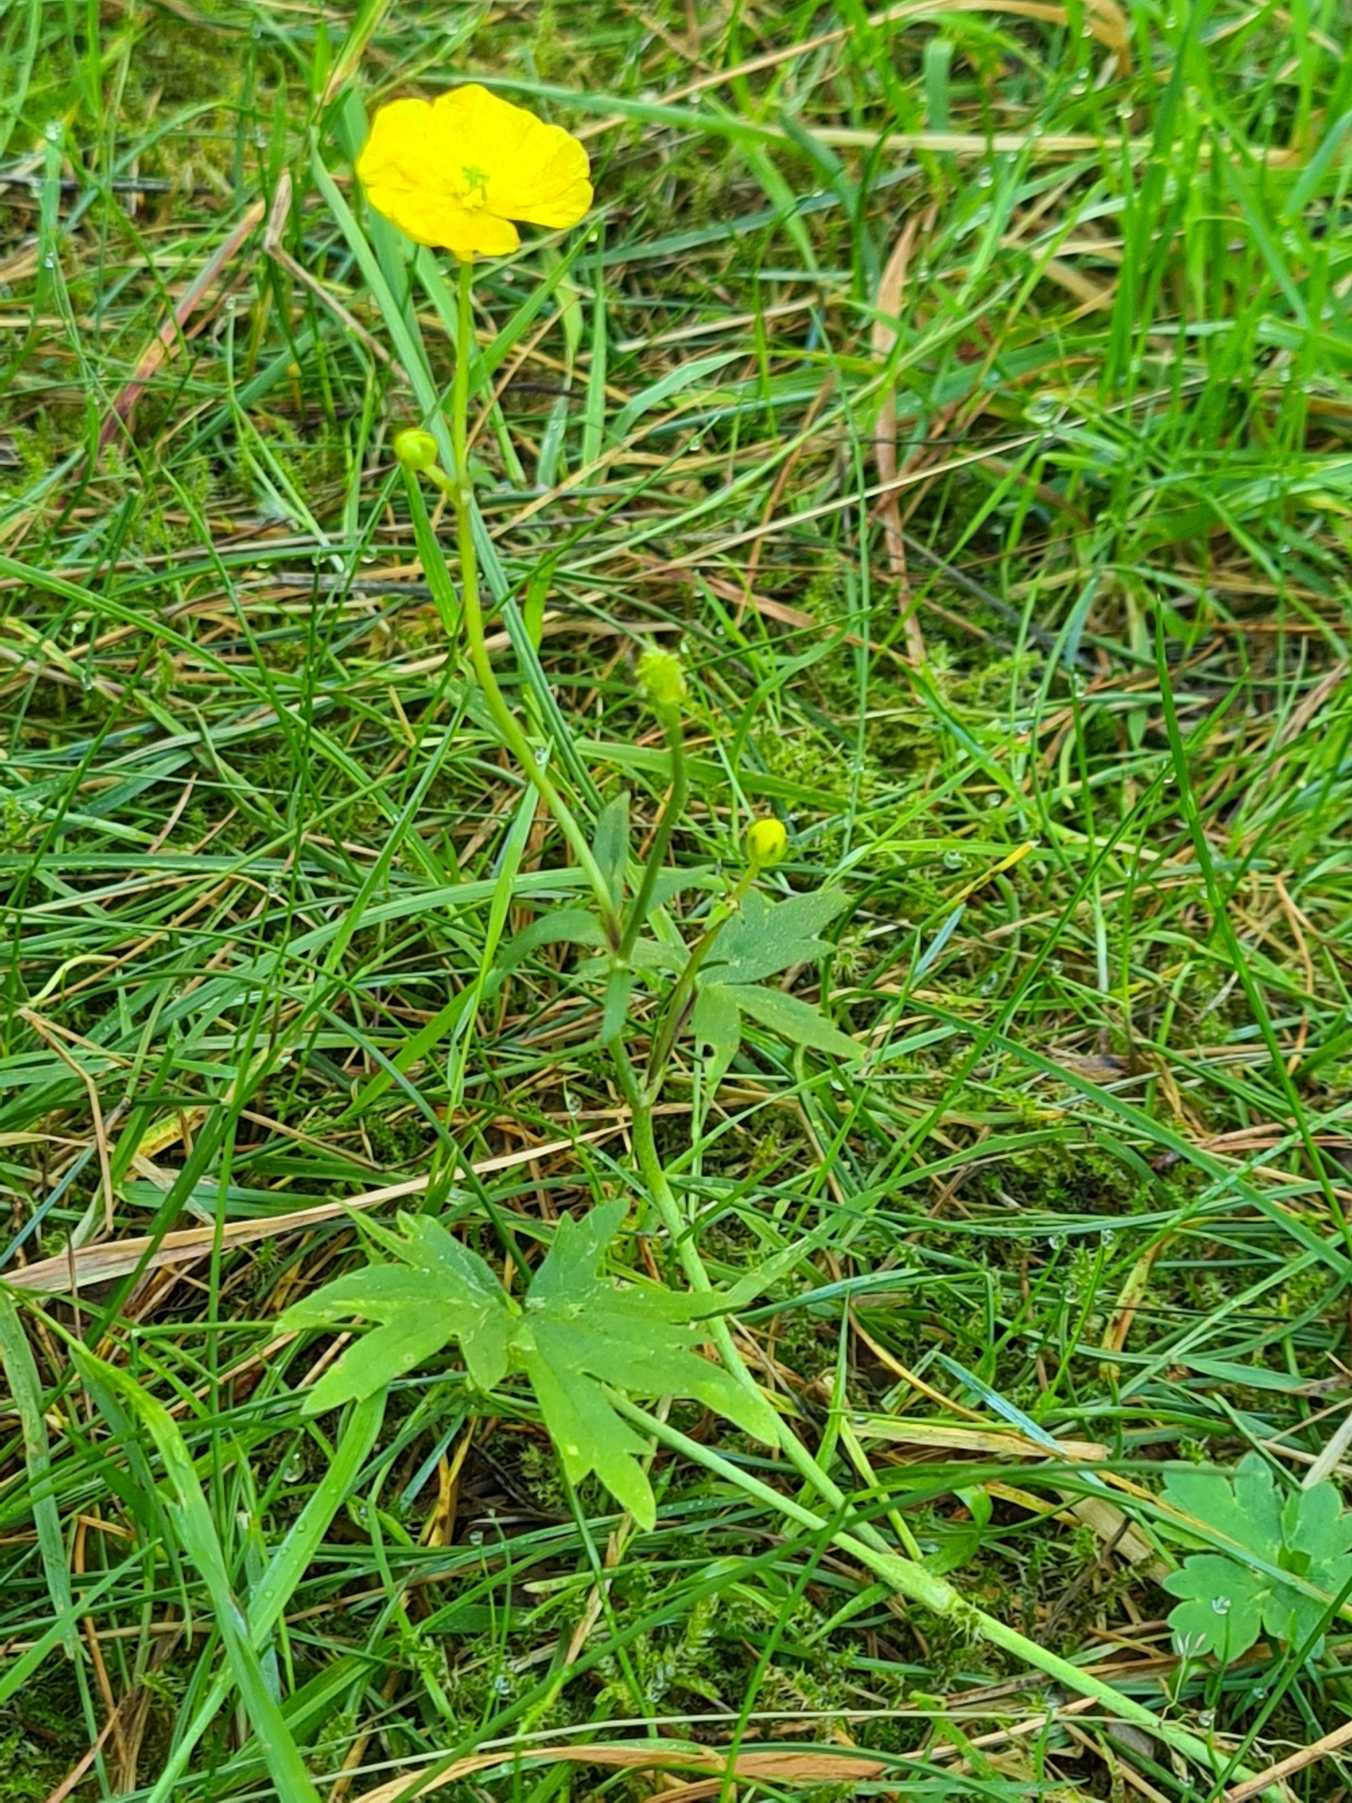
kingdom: Plantae
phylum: Tracheophyta
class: Magnoliopsida
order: Ranunculales
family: Ranunculaceae
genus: Ranunculus
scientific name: Ranunculus acris
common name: Bidende ranunkel
